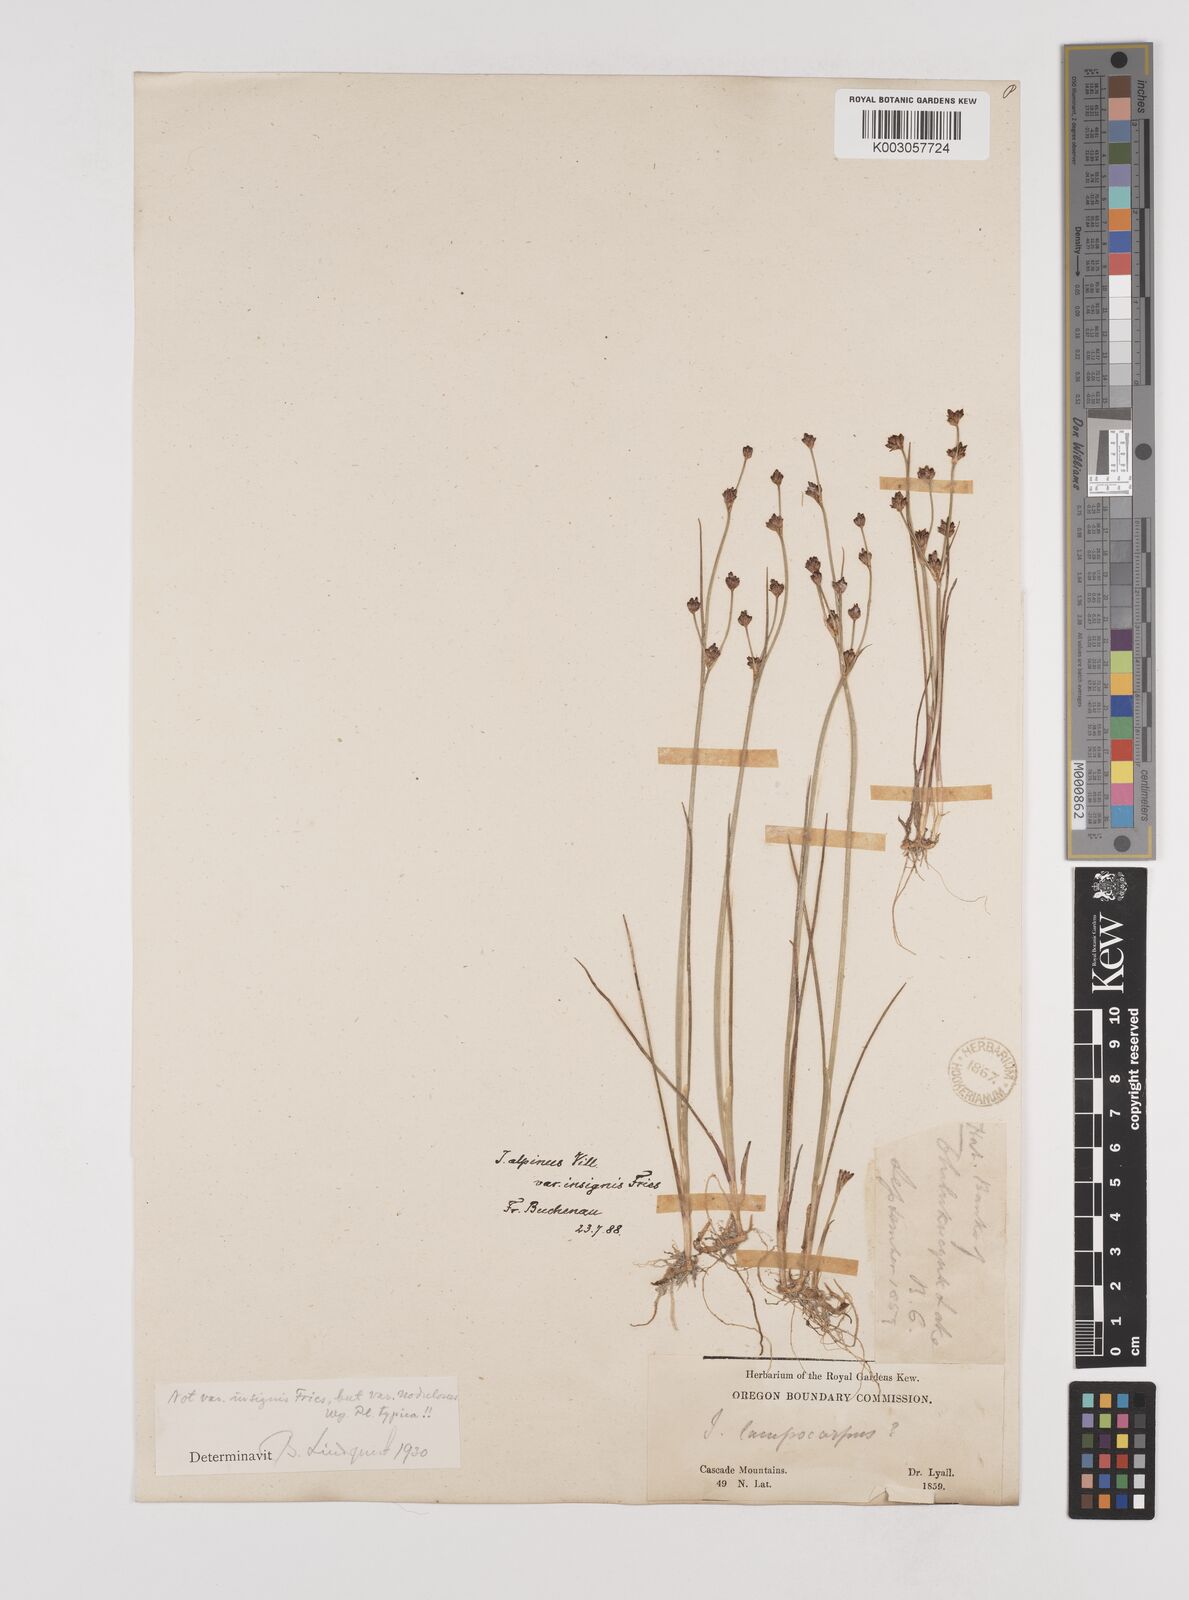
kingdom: Plantae
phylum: Tracheophyta
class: Liliopsida
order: Poales
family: Juncaceae
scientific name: Juncaceae
